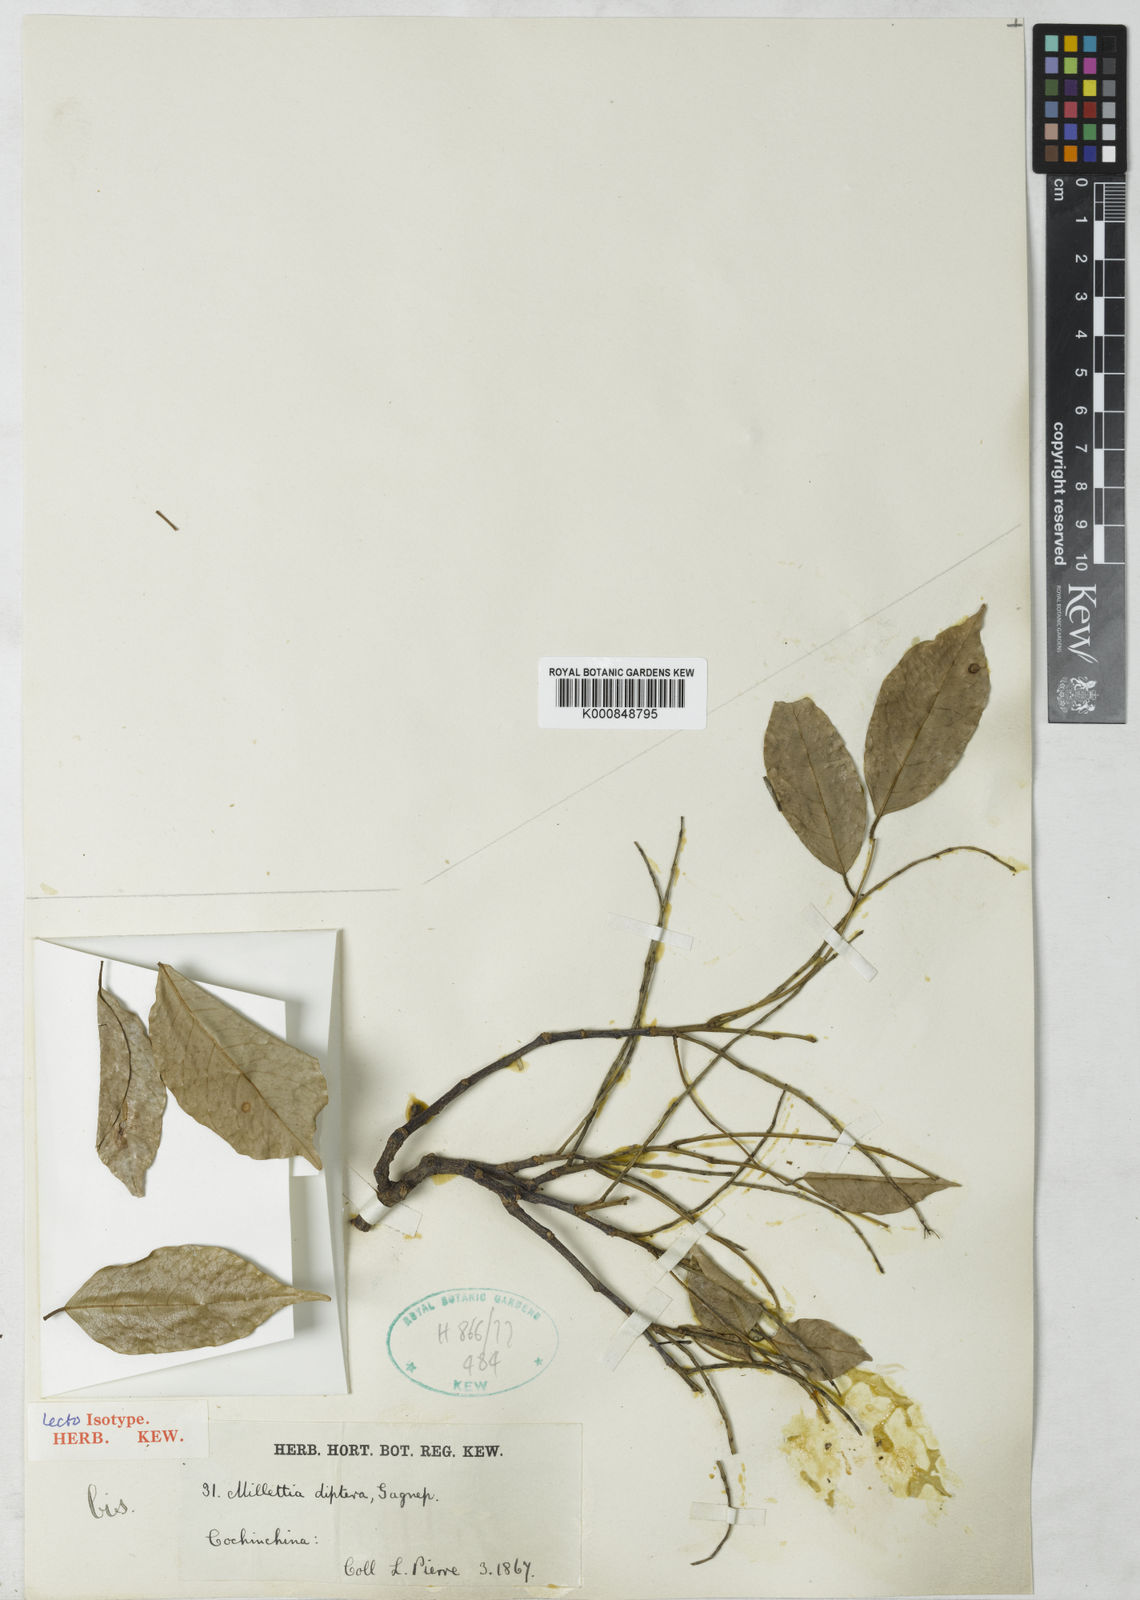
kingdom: Plantae
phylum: Tracheophyta
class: Magnoliopsida
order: Fabales
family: Fabaceae
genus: Millettia
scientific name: Millettia diptera
